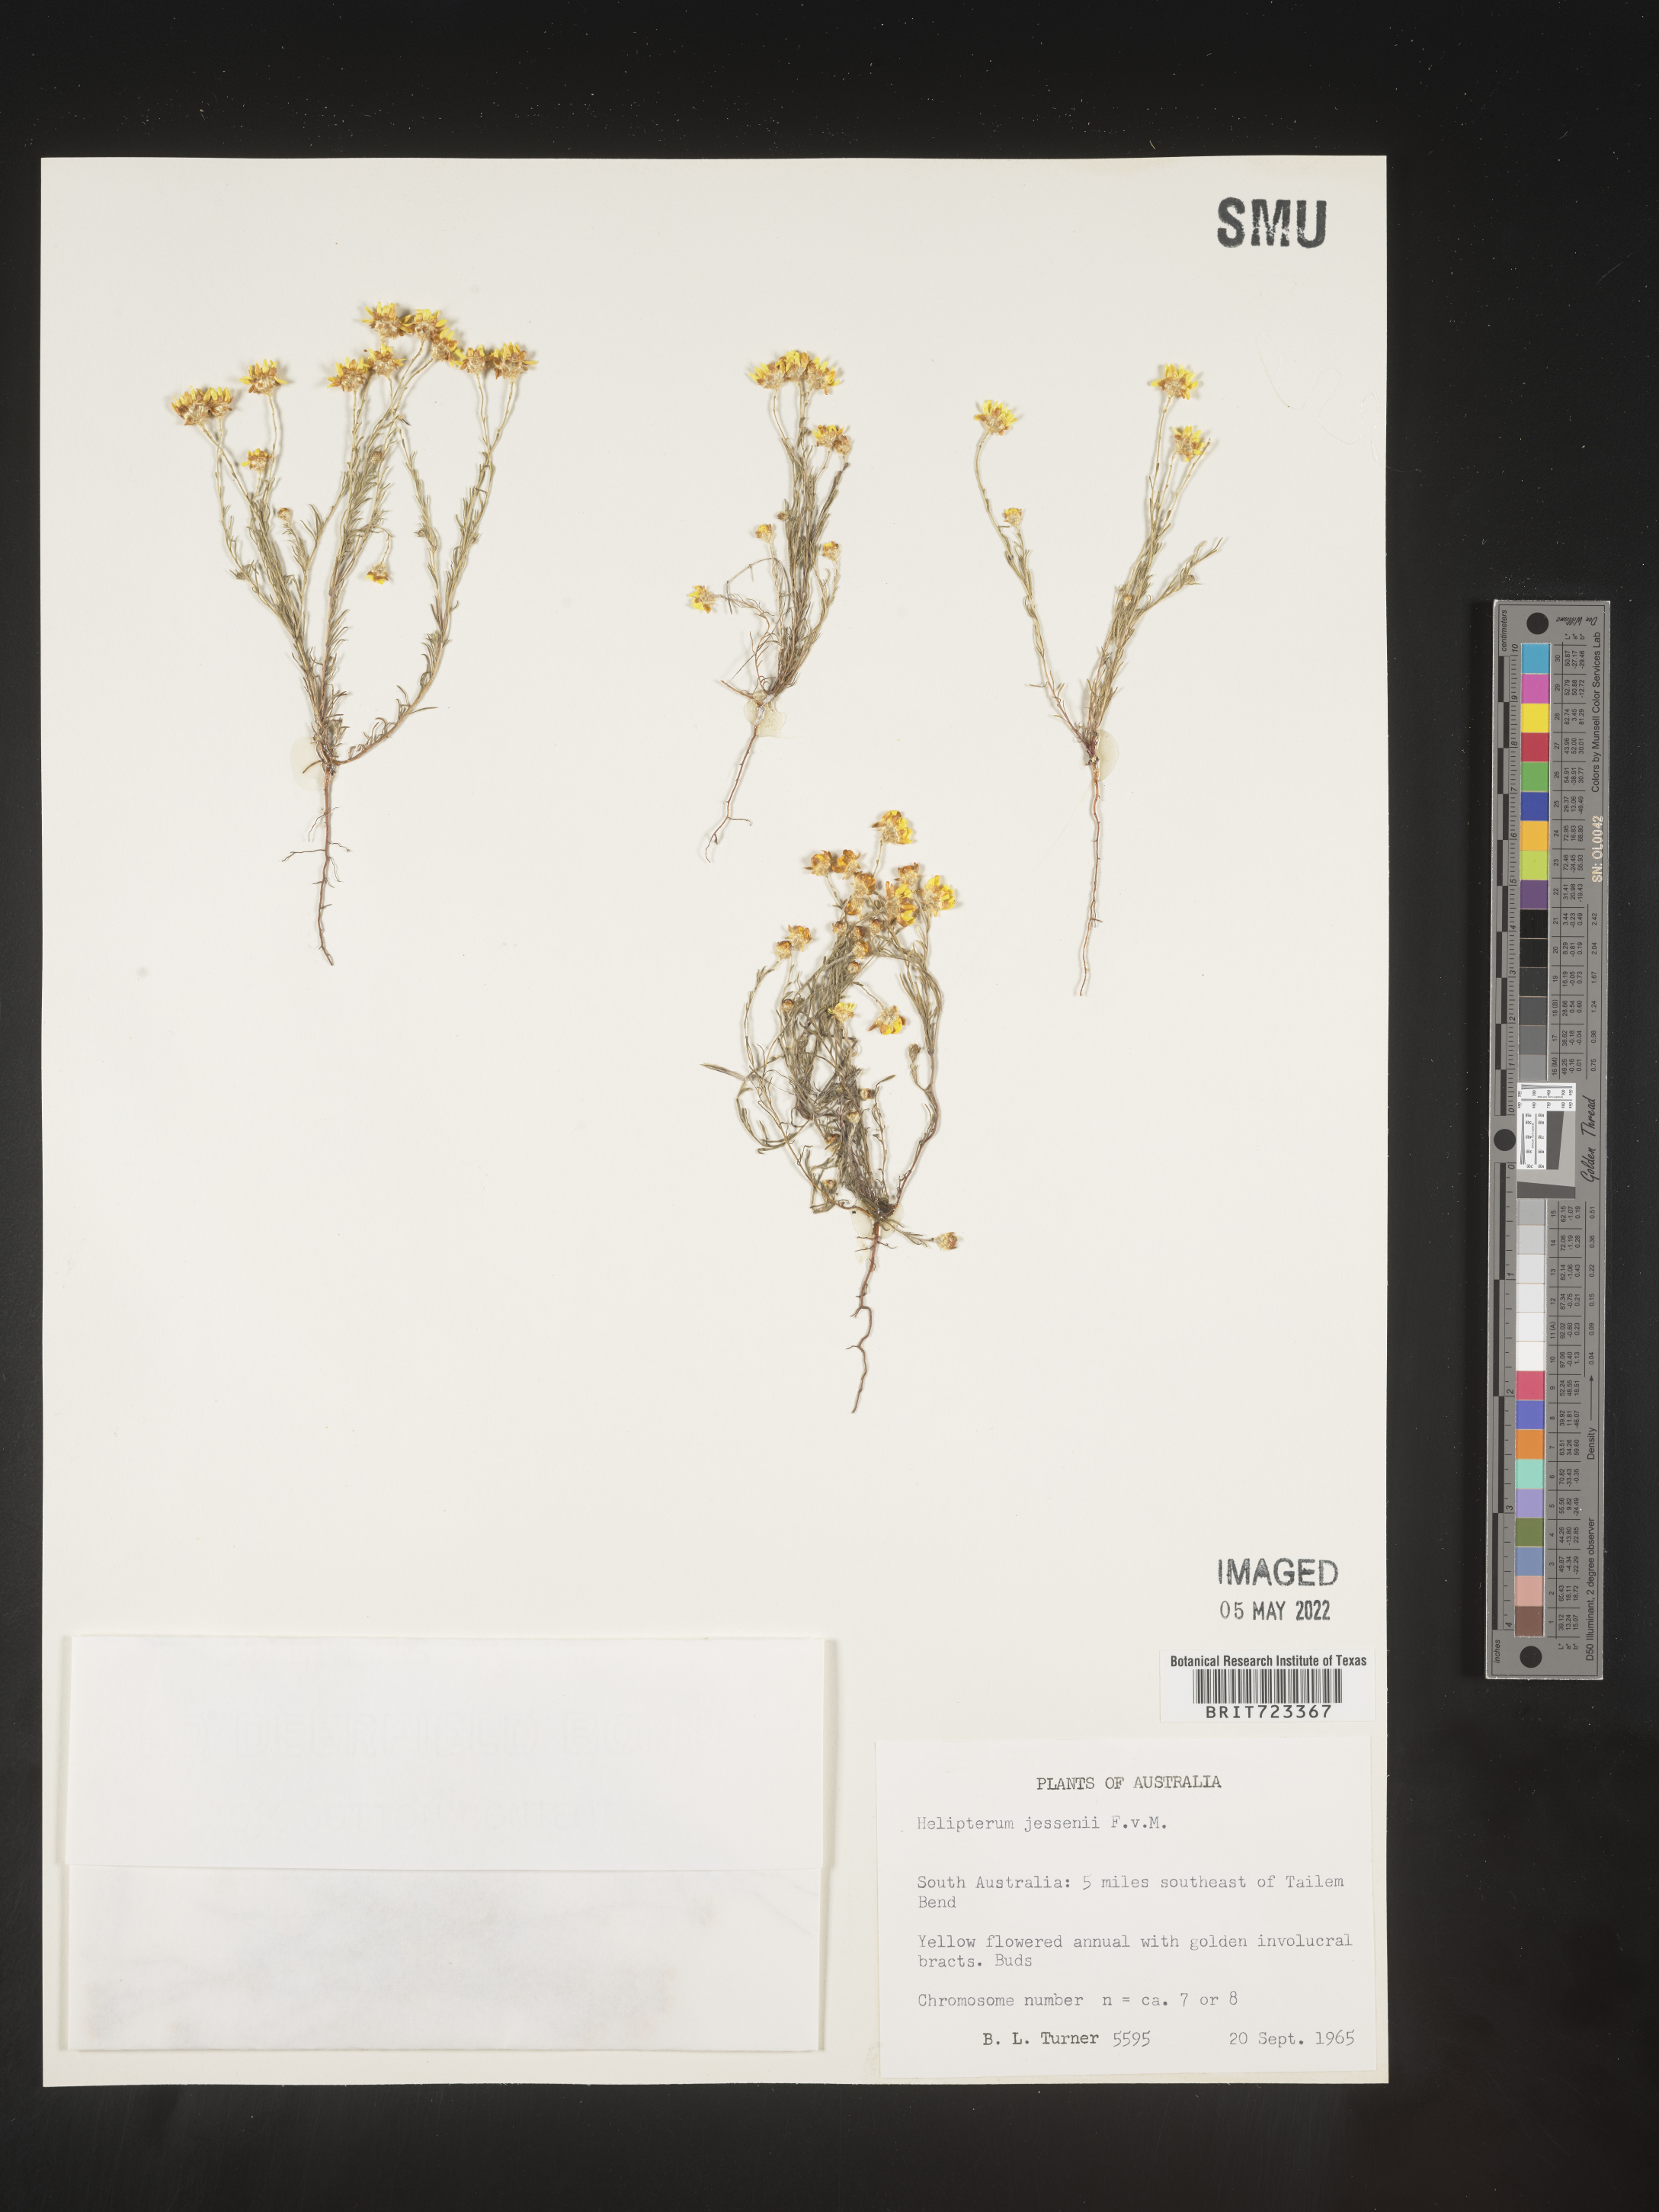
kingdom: Plantae
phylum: Tracheophyta
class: Magnoliopsida
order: Asterales
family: Asteraceae
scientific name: Asteraceae
